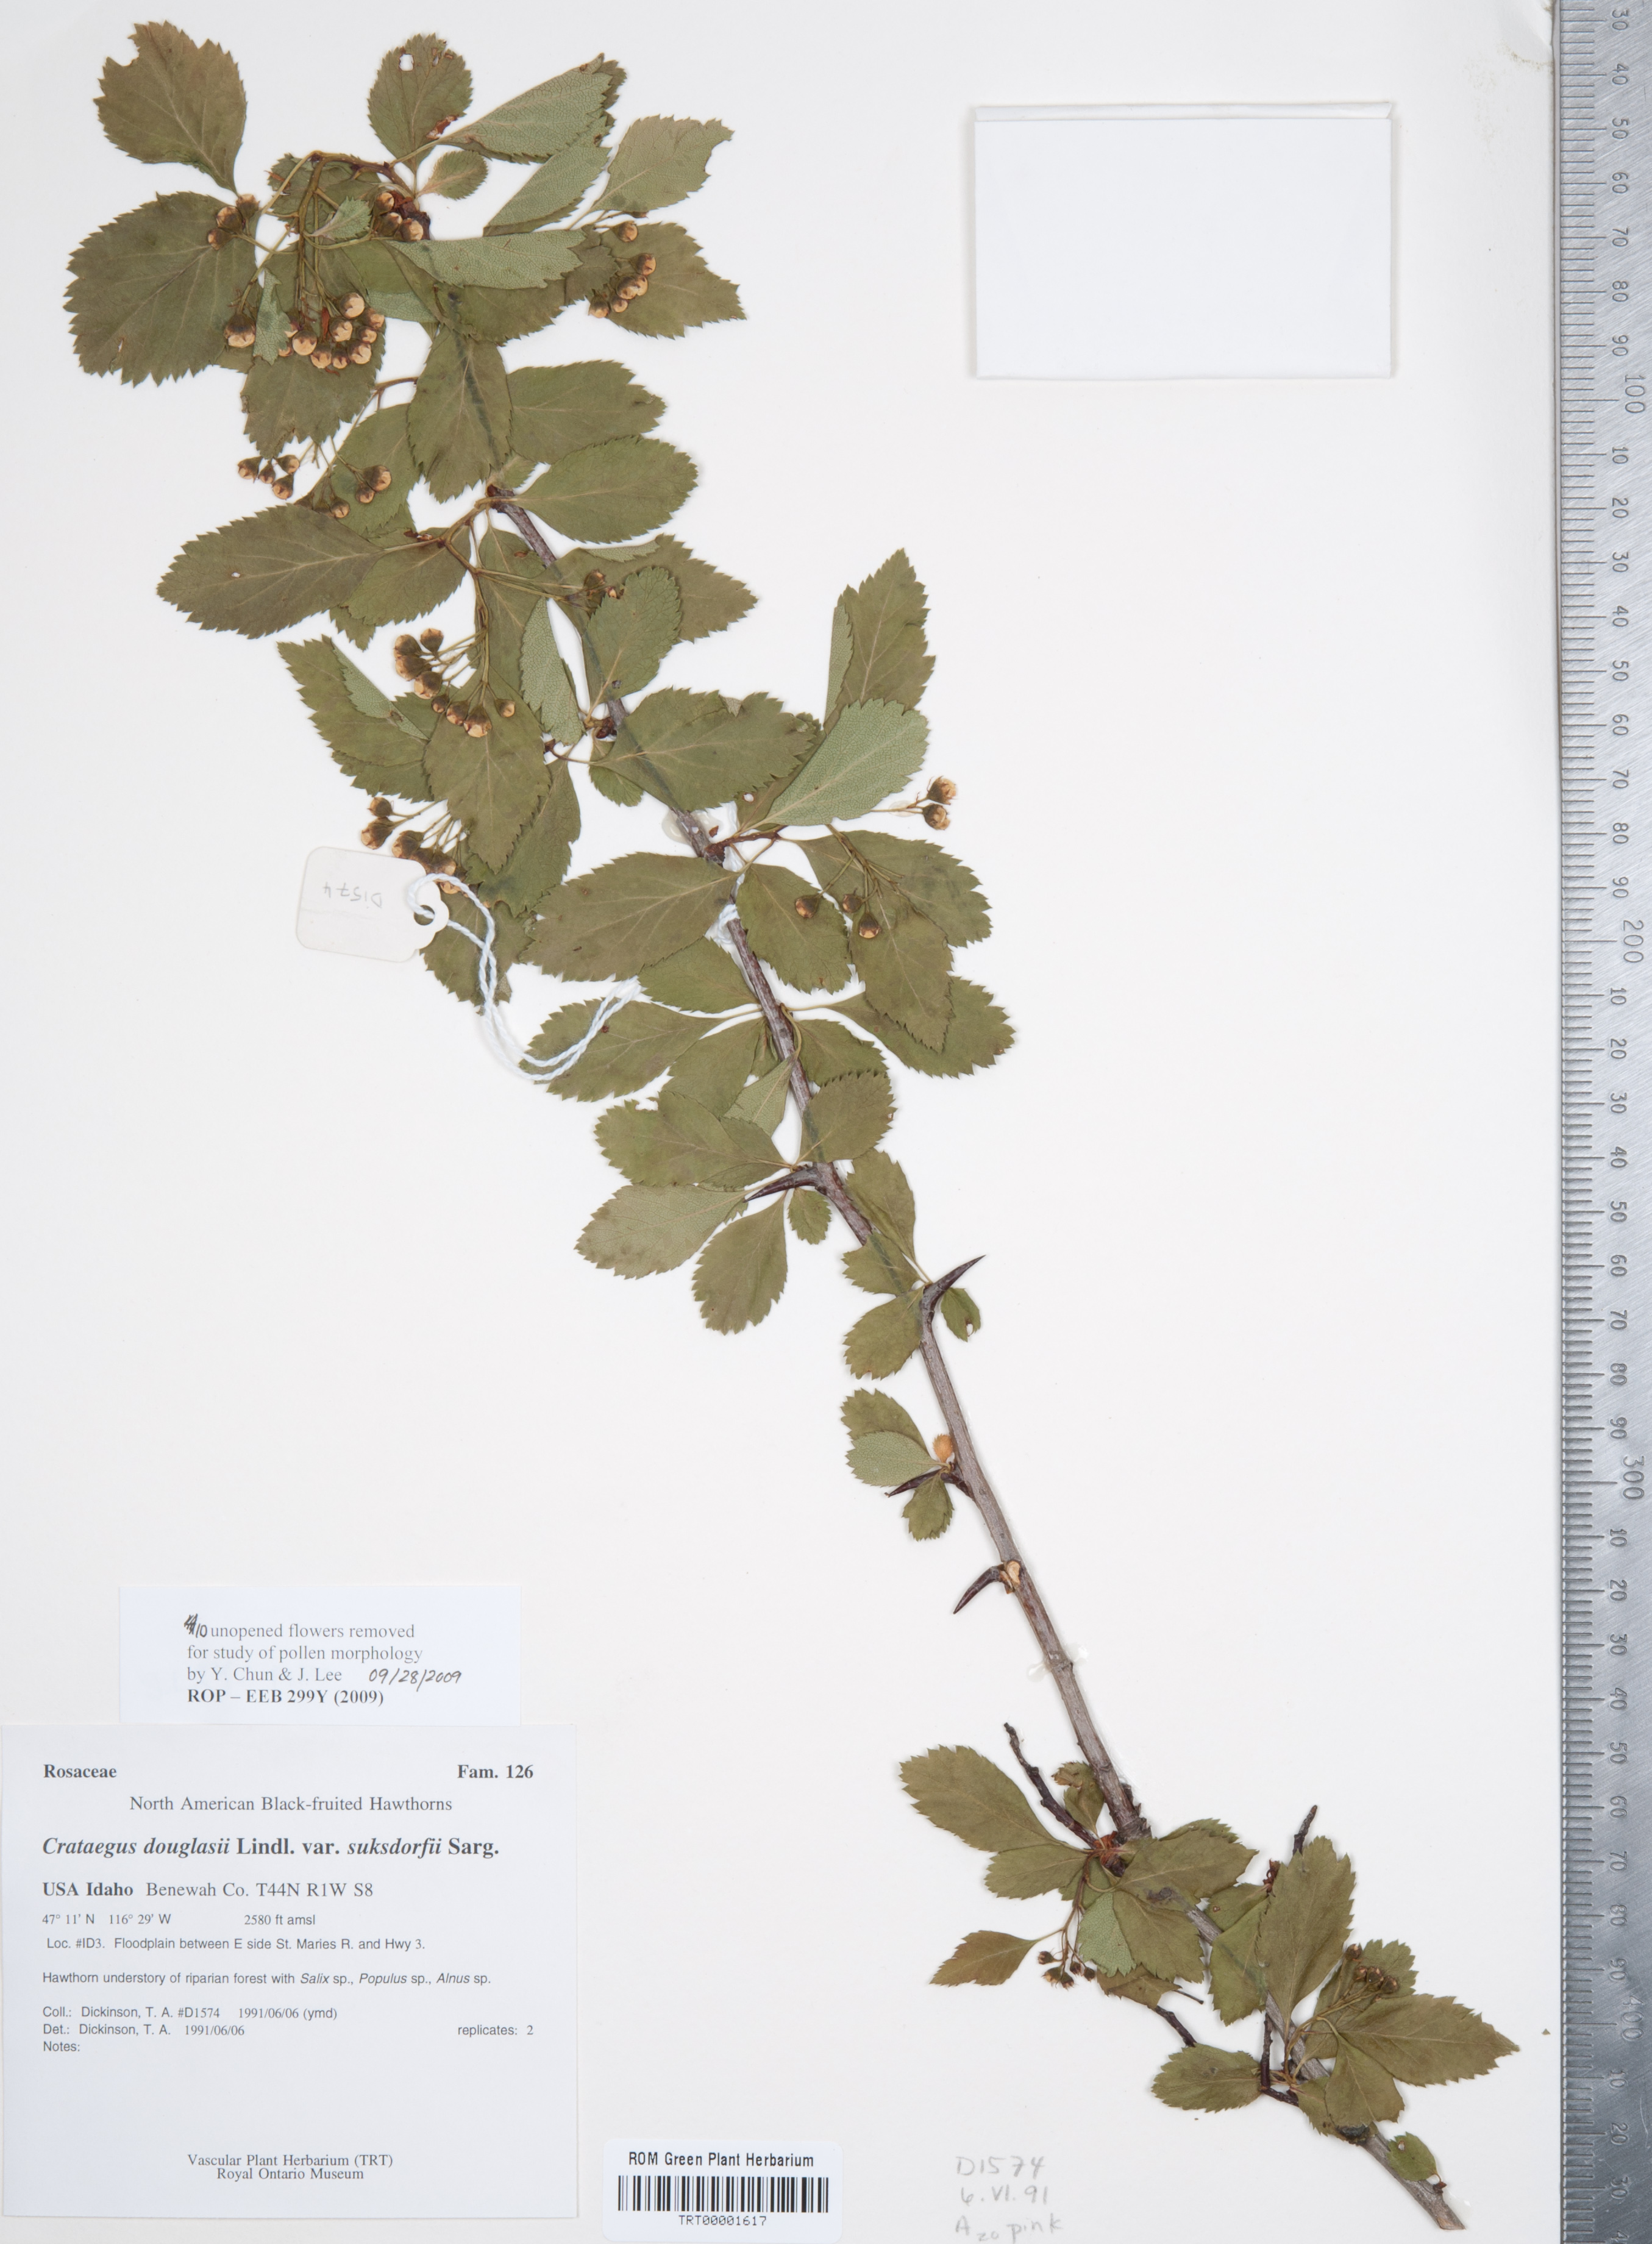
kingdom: Plantae
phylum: Tracheophyta
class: Magnoliopsida
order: Rosales
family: Rosaceae
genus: Crataegus
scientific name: Crataegus gaylussacia
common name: Huckleberry hawthorn
